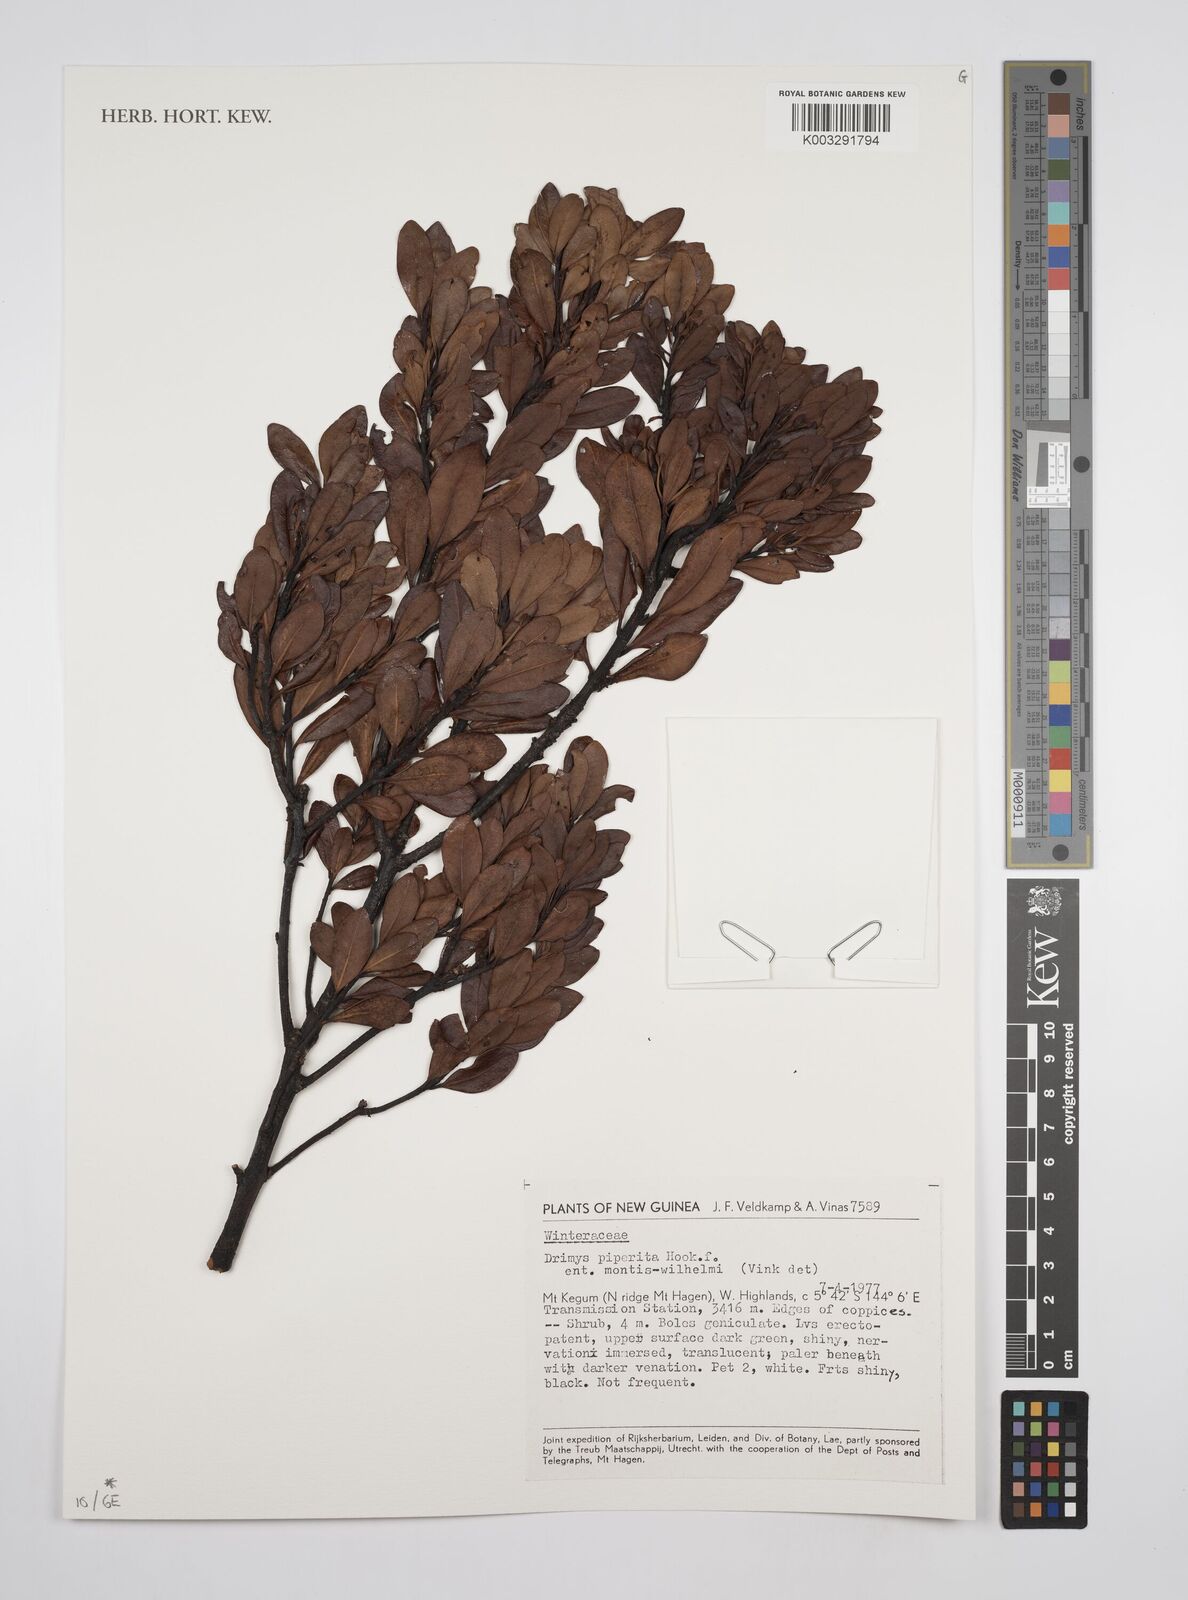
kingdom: Plantae
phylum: Tracheophyta
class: Magnoliopsida
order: Canellales
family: Winteraceae
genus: Drimys
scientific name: Drimys piperita
